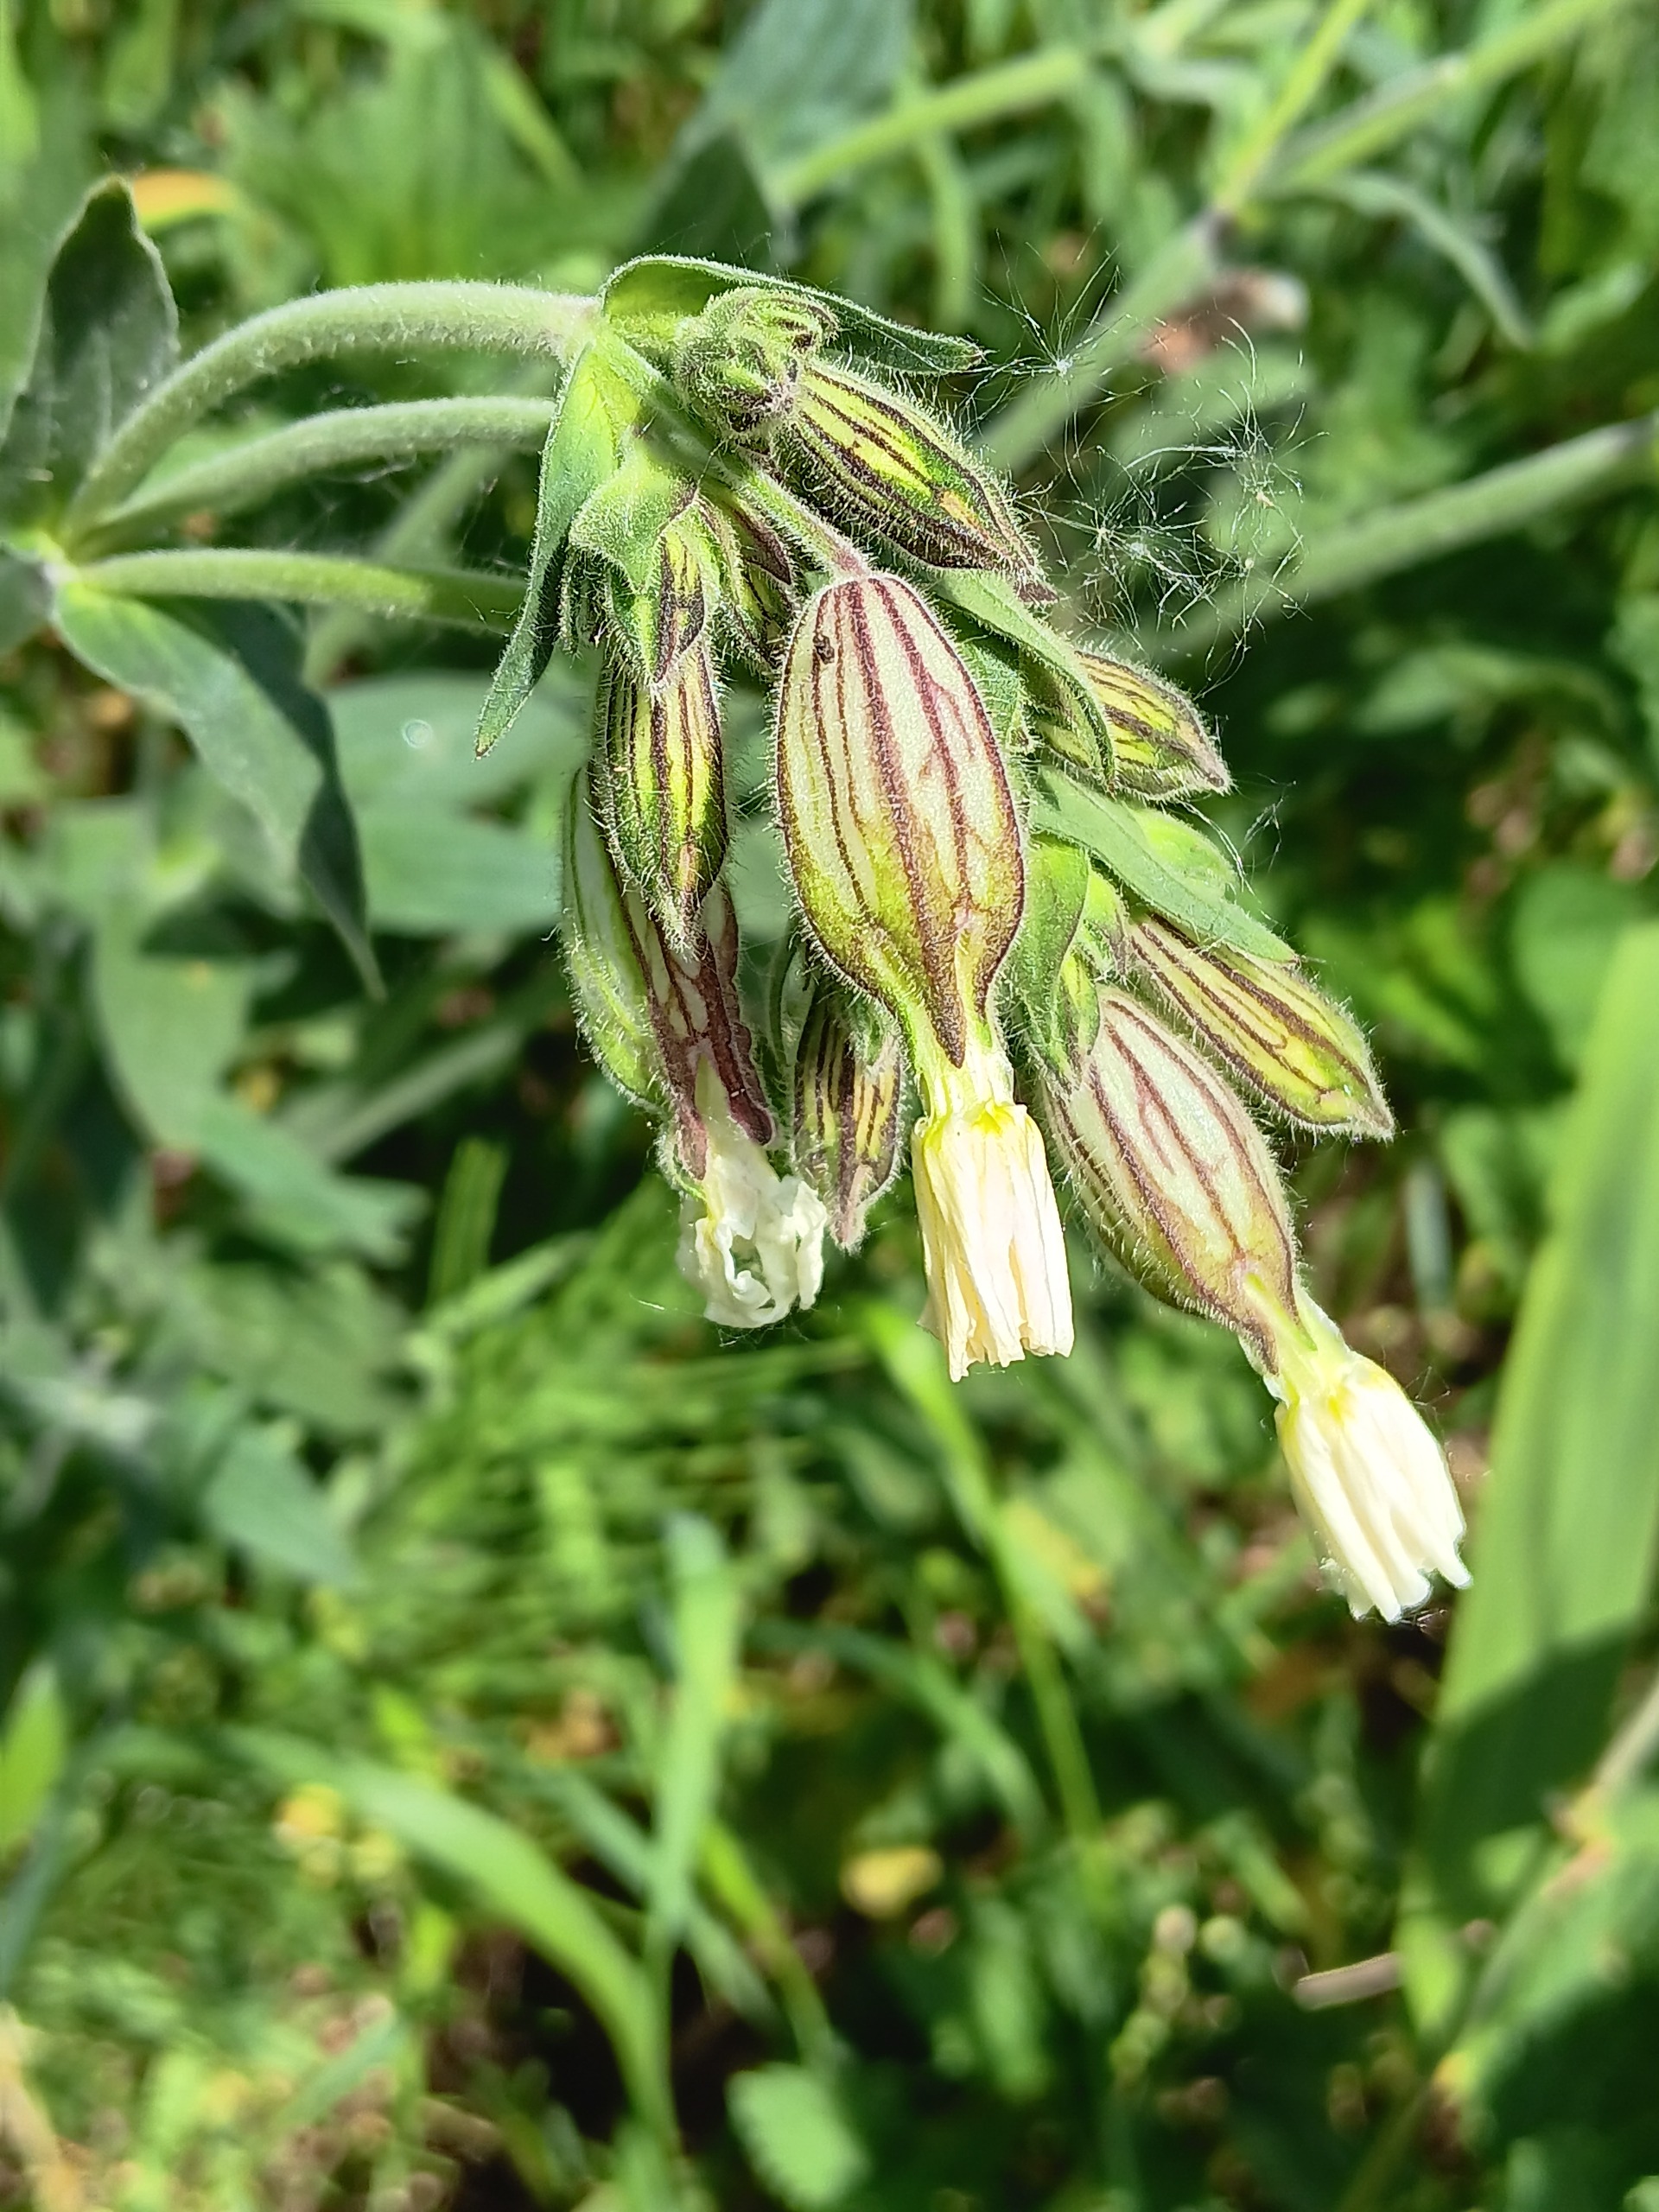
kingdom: Plantae
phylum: Tracheophyta
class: Magnoliopsida
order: Caryophyllales
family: Caryophyllaceae
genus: Silene
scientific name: Silene latifolia
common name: Aftenpragtstjerne
